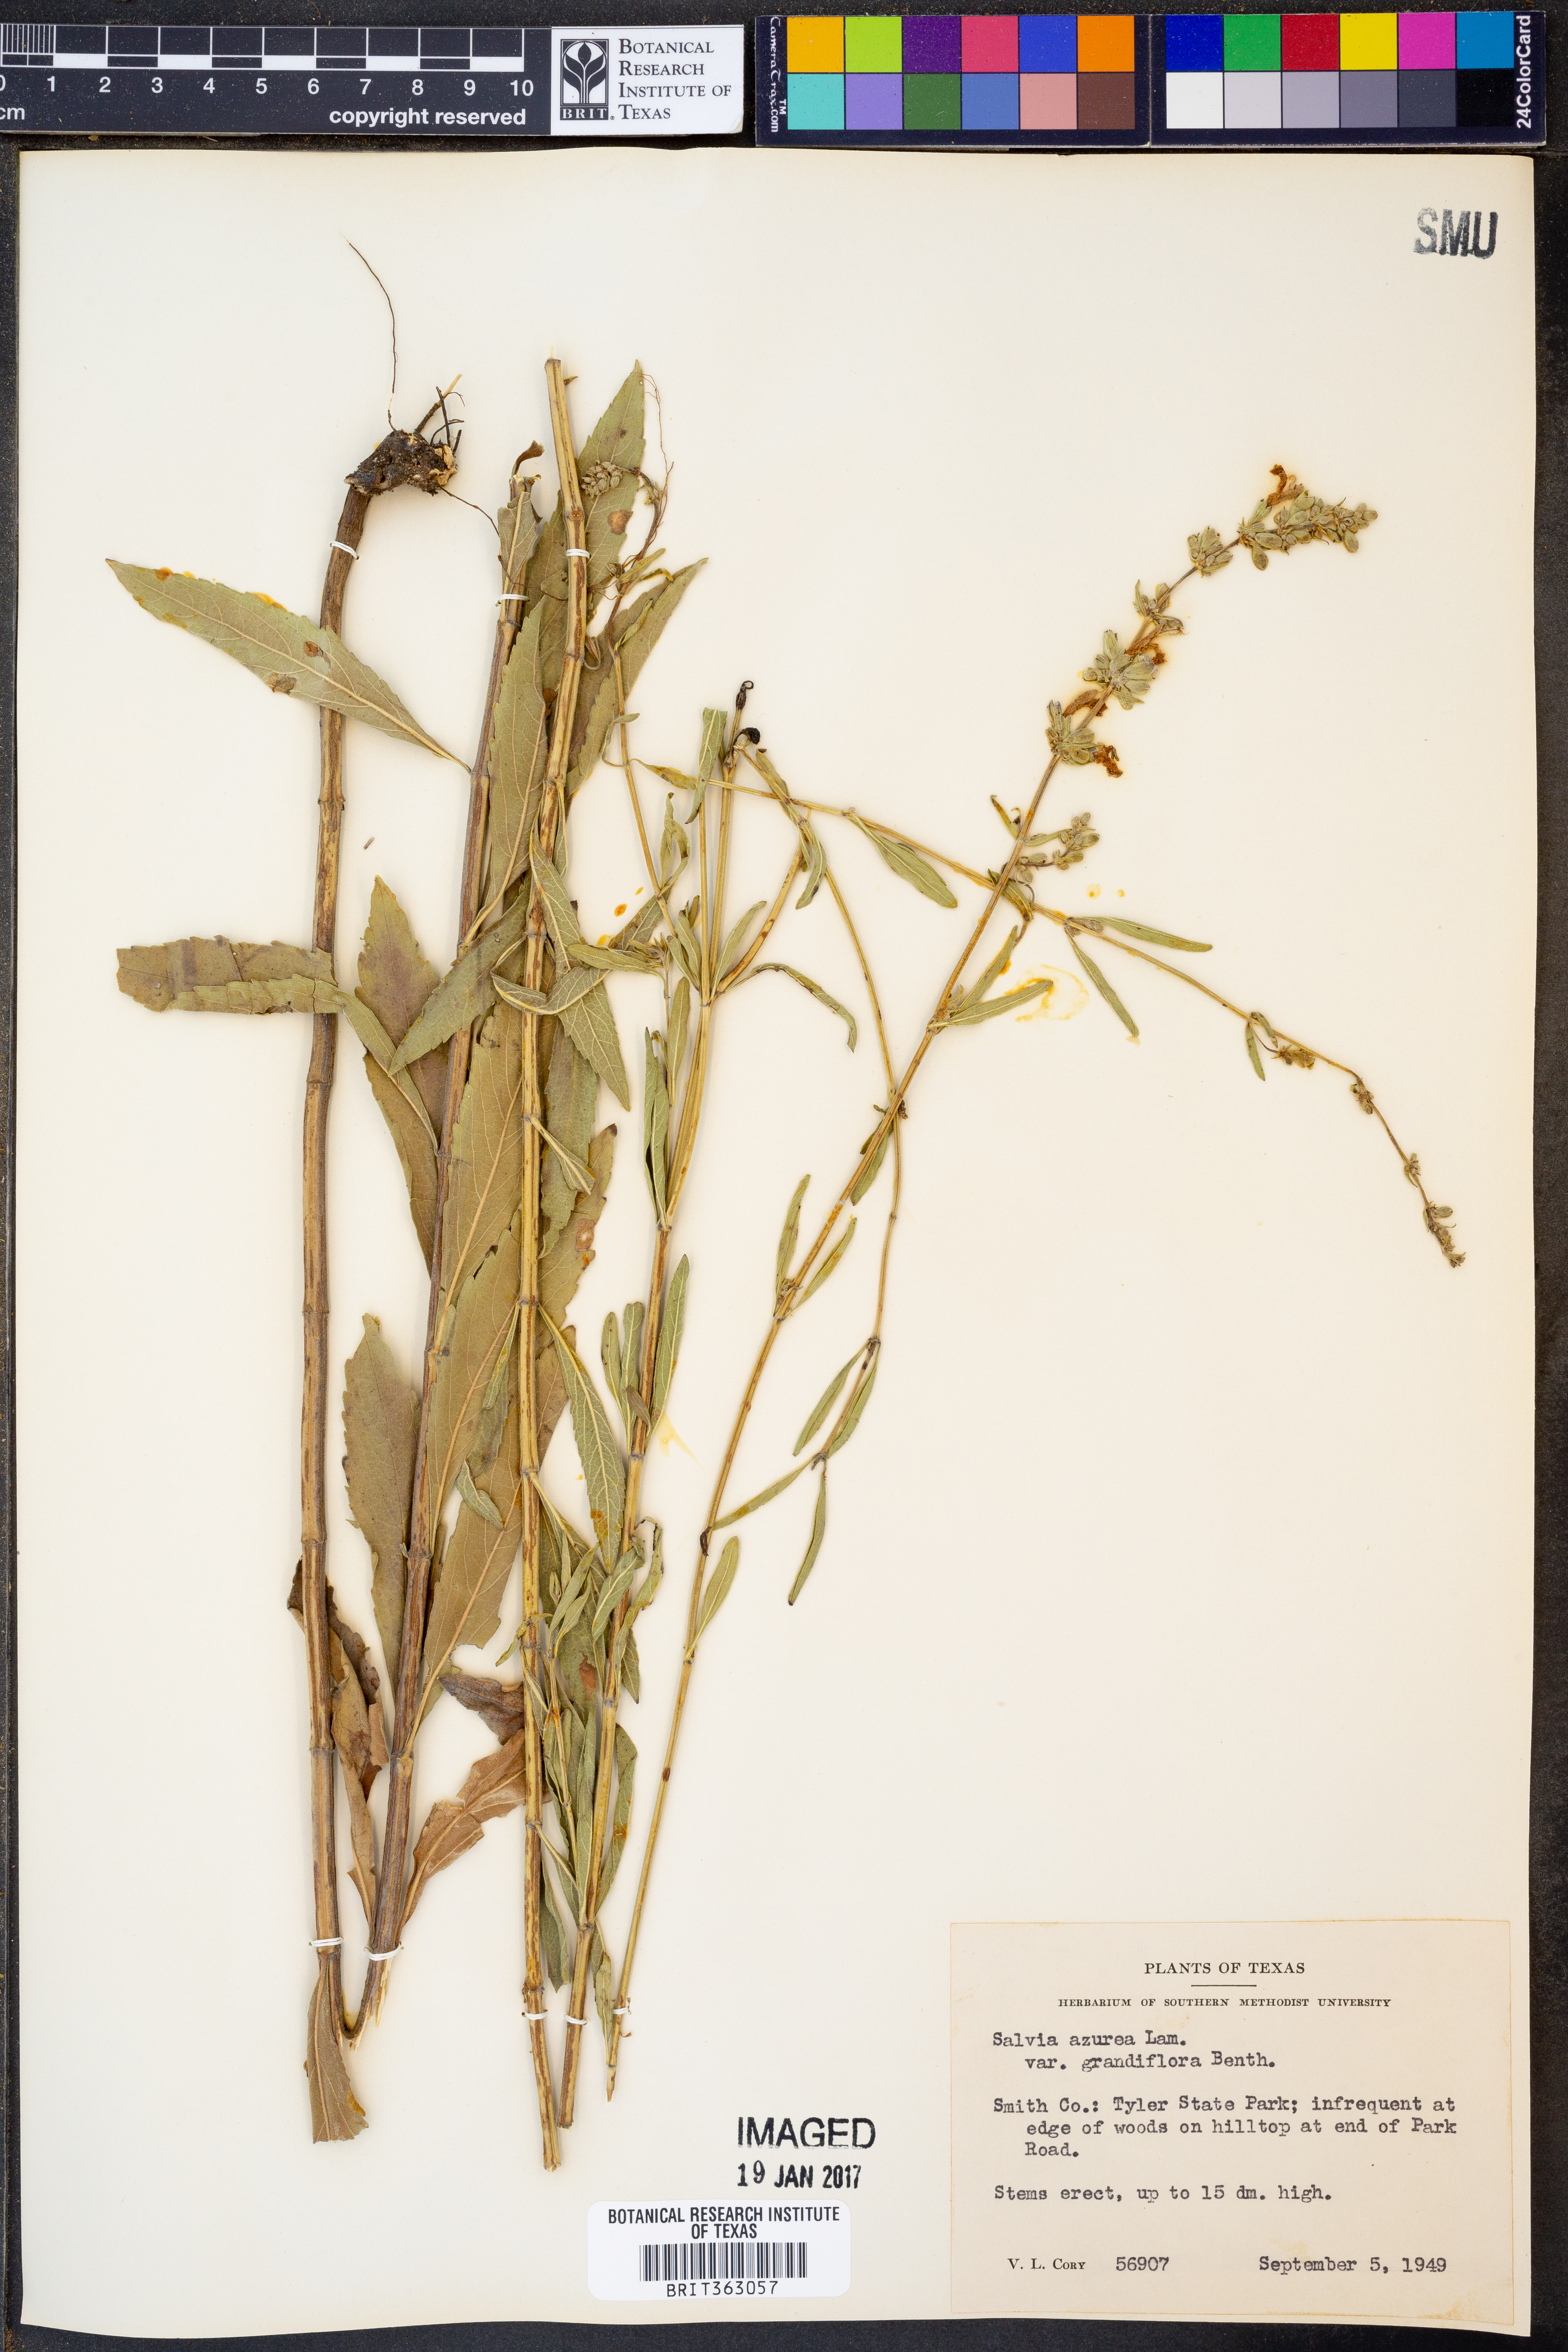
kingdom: Plantae
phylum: Tracheophyta
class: Magnoliopsida
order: Lamiales
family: Lamiaceae
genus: Salvia
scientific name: Salvia azurea
